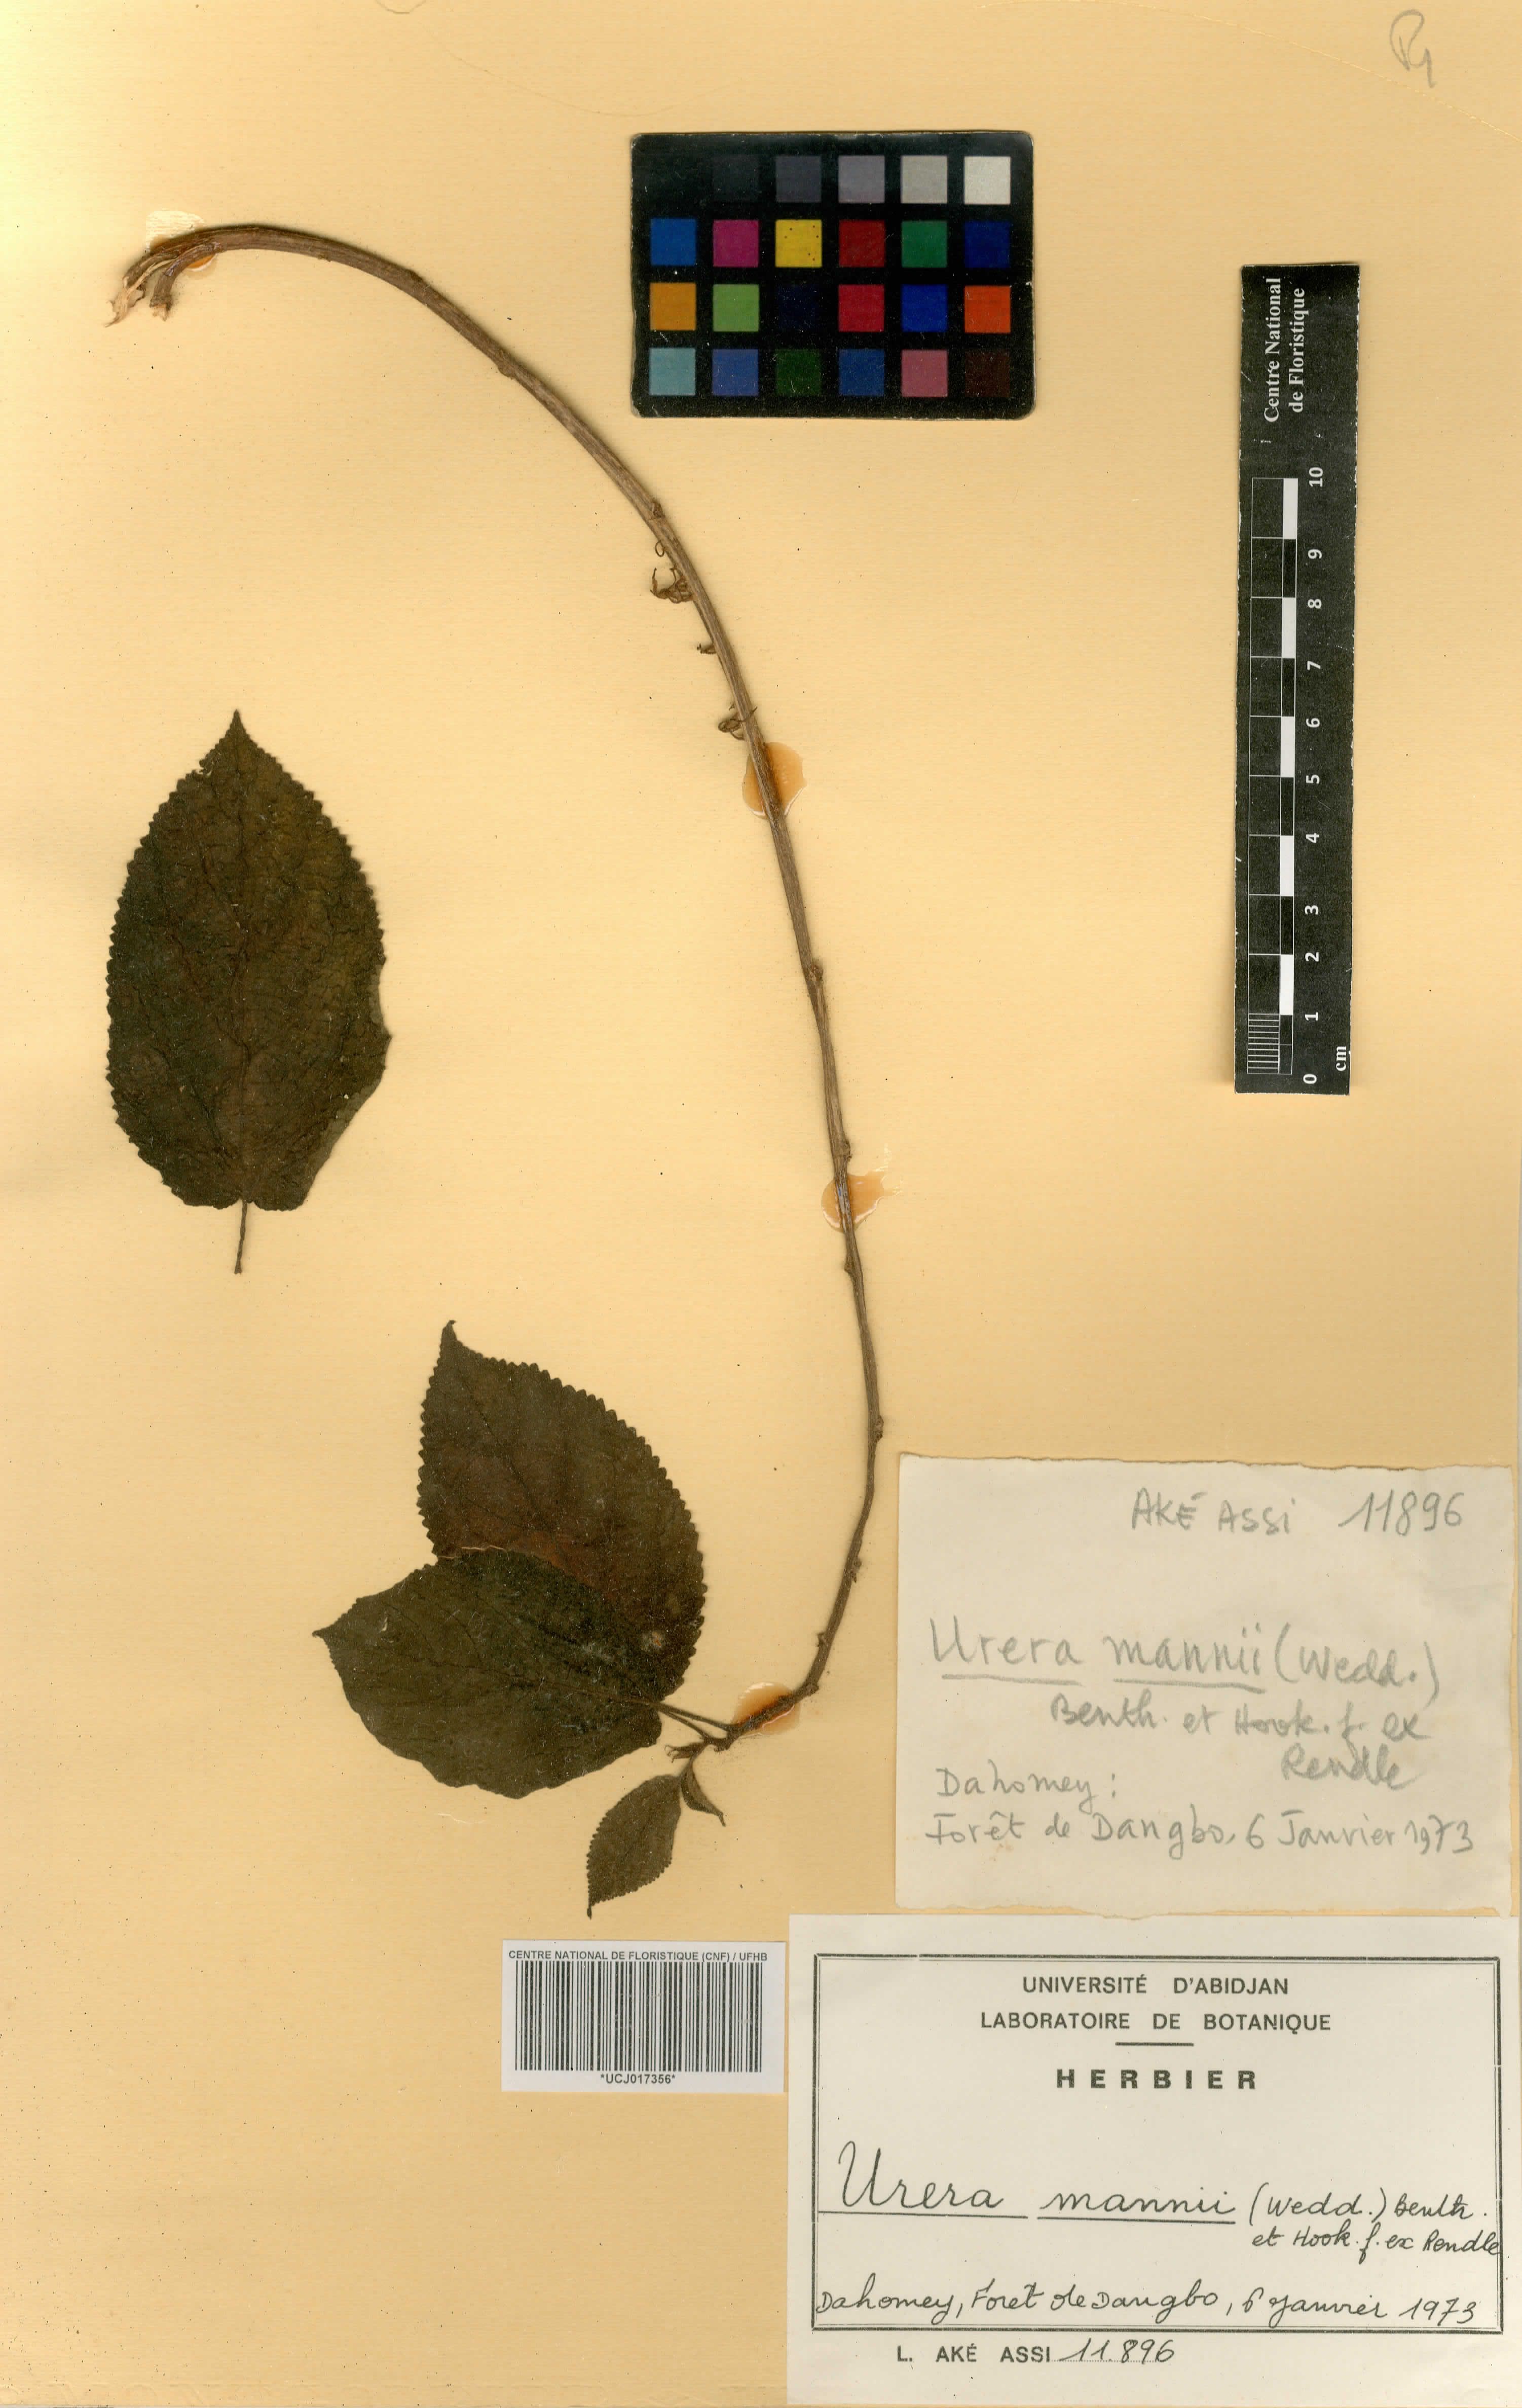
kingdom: Plantae
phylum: Tracheophyta
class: Magnoliopsida
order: Rosales
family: Urticaceae
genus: Scepocarpus
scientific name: Scepocarpus mannii
